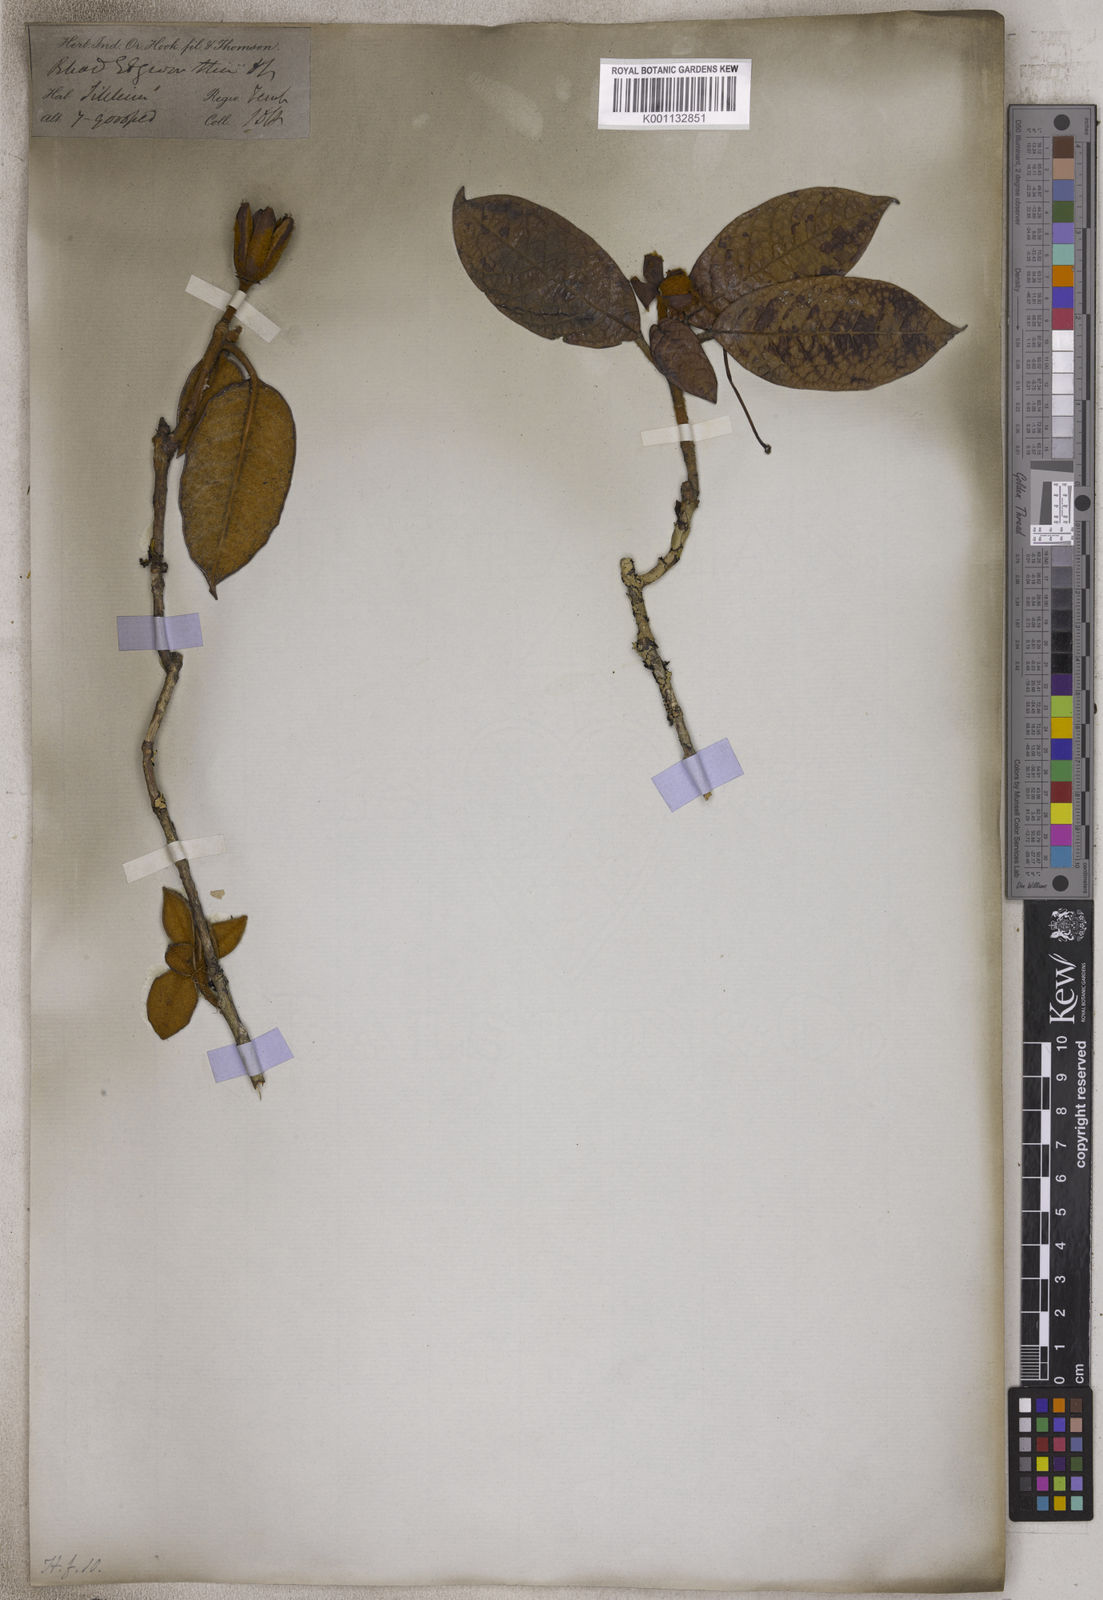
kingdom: Plantae
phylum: Tracheophyta
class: Magnoliopsida
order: Ericales
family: Ericaceae
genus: Rhododendron
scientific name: Rhododendron edgeworthii
